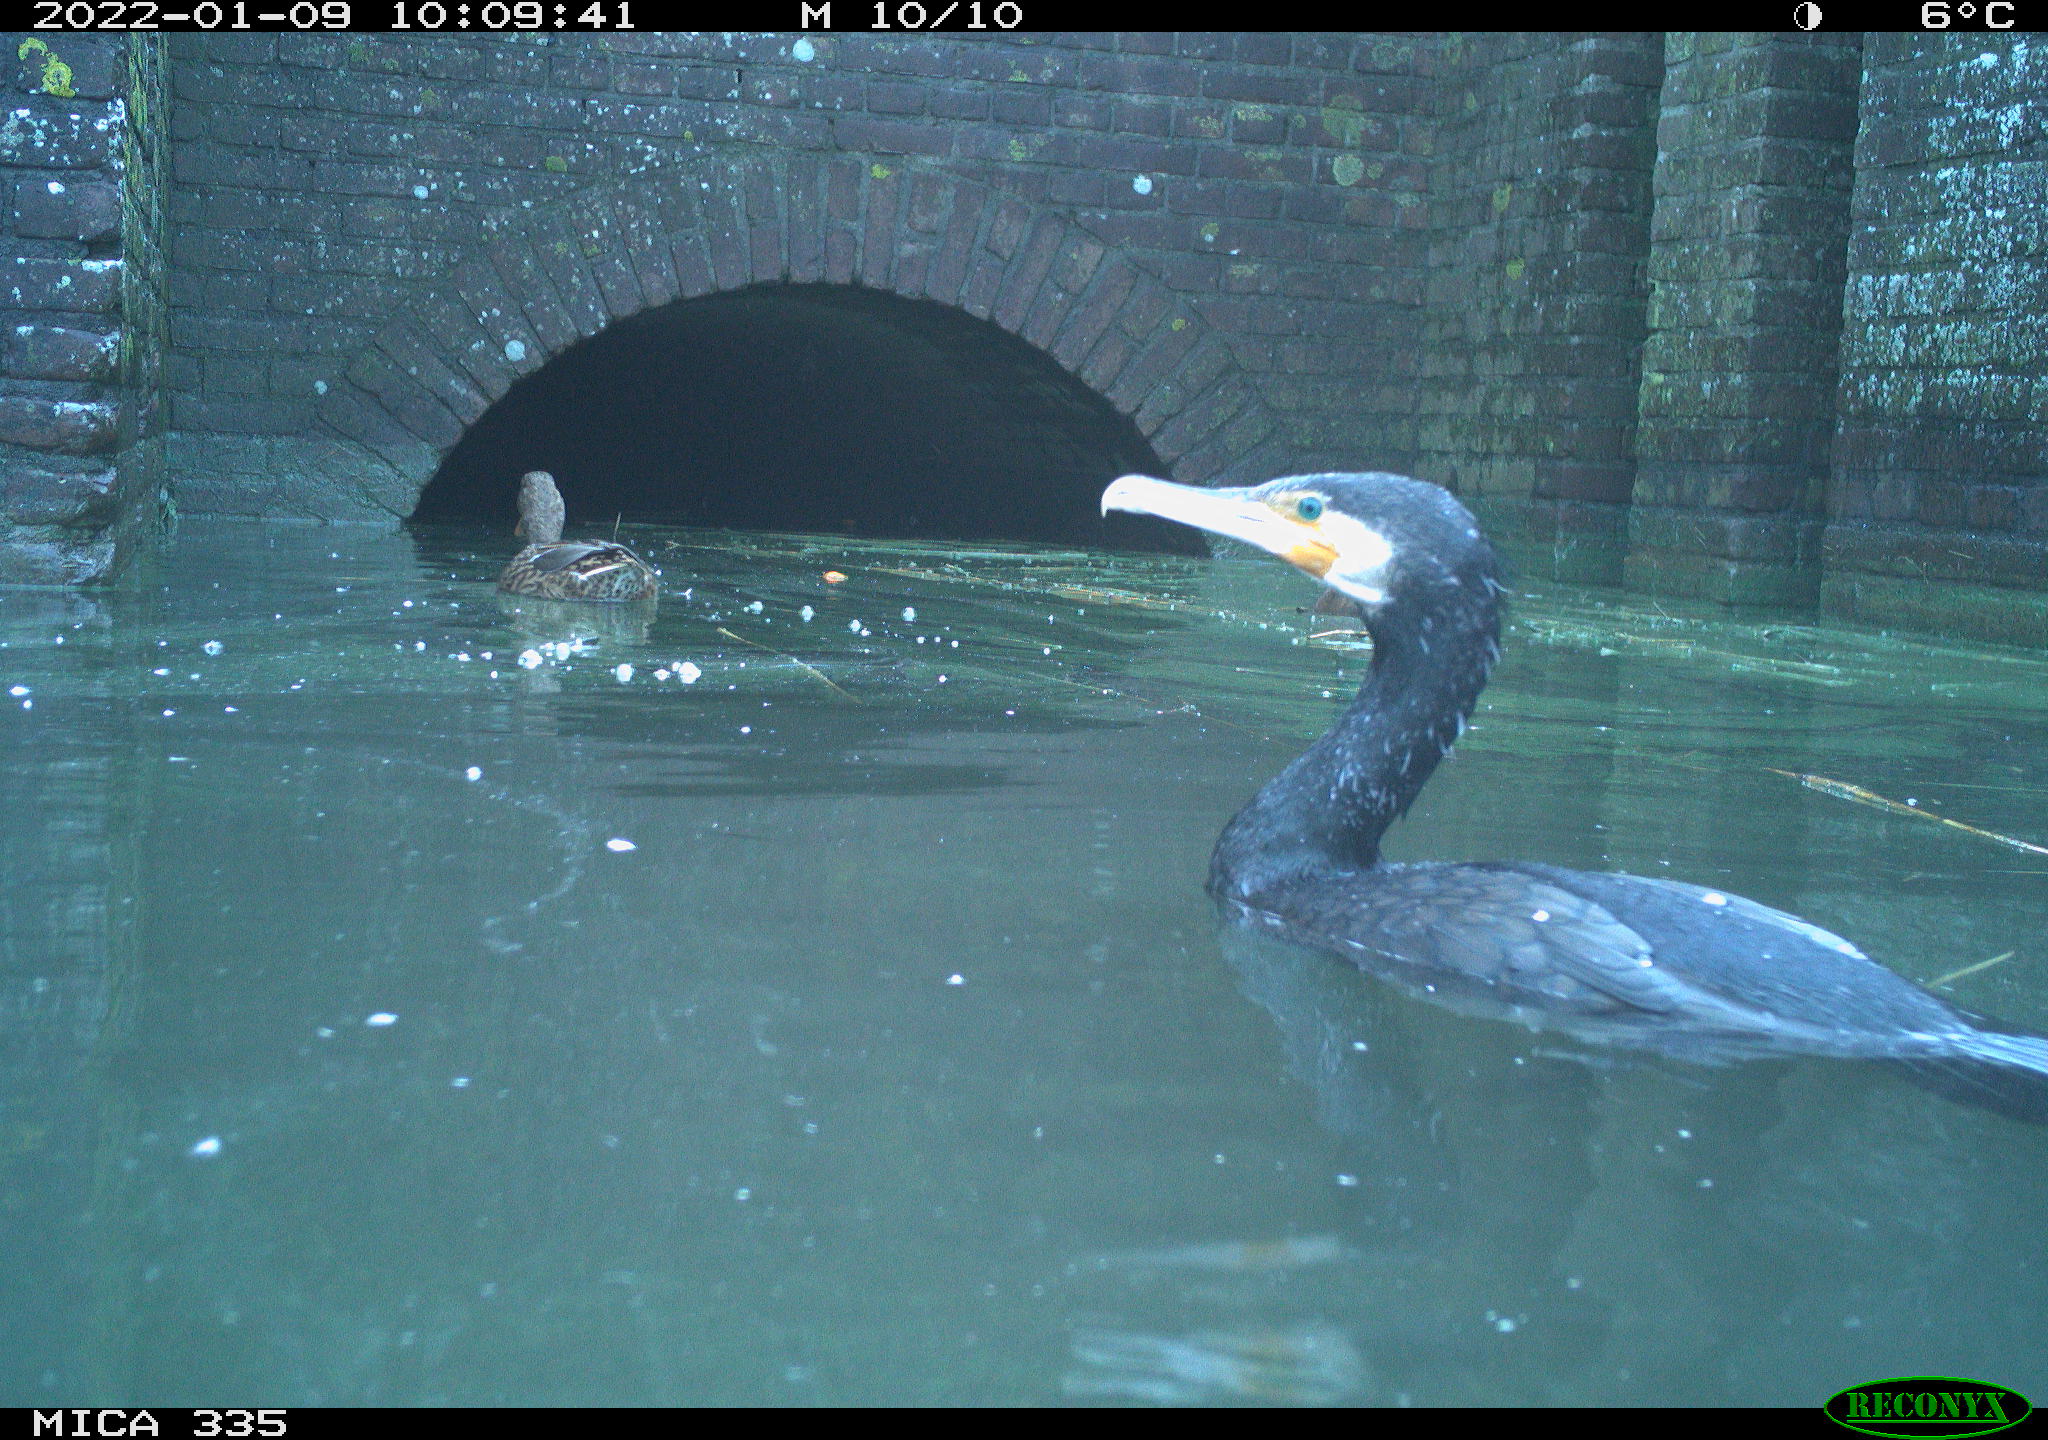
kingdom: Animalia
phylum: Chordata
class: Aves
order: Suliformes
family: Phalacrocoracidae
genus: Phalacrocorax
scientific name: Phalacrocorax carbo
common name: Great cormorant
